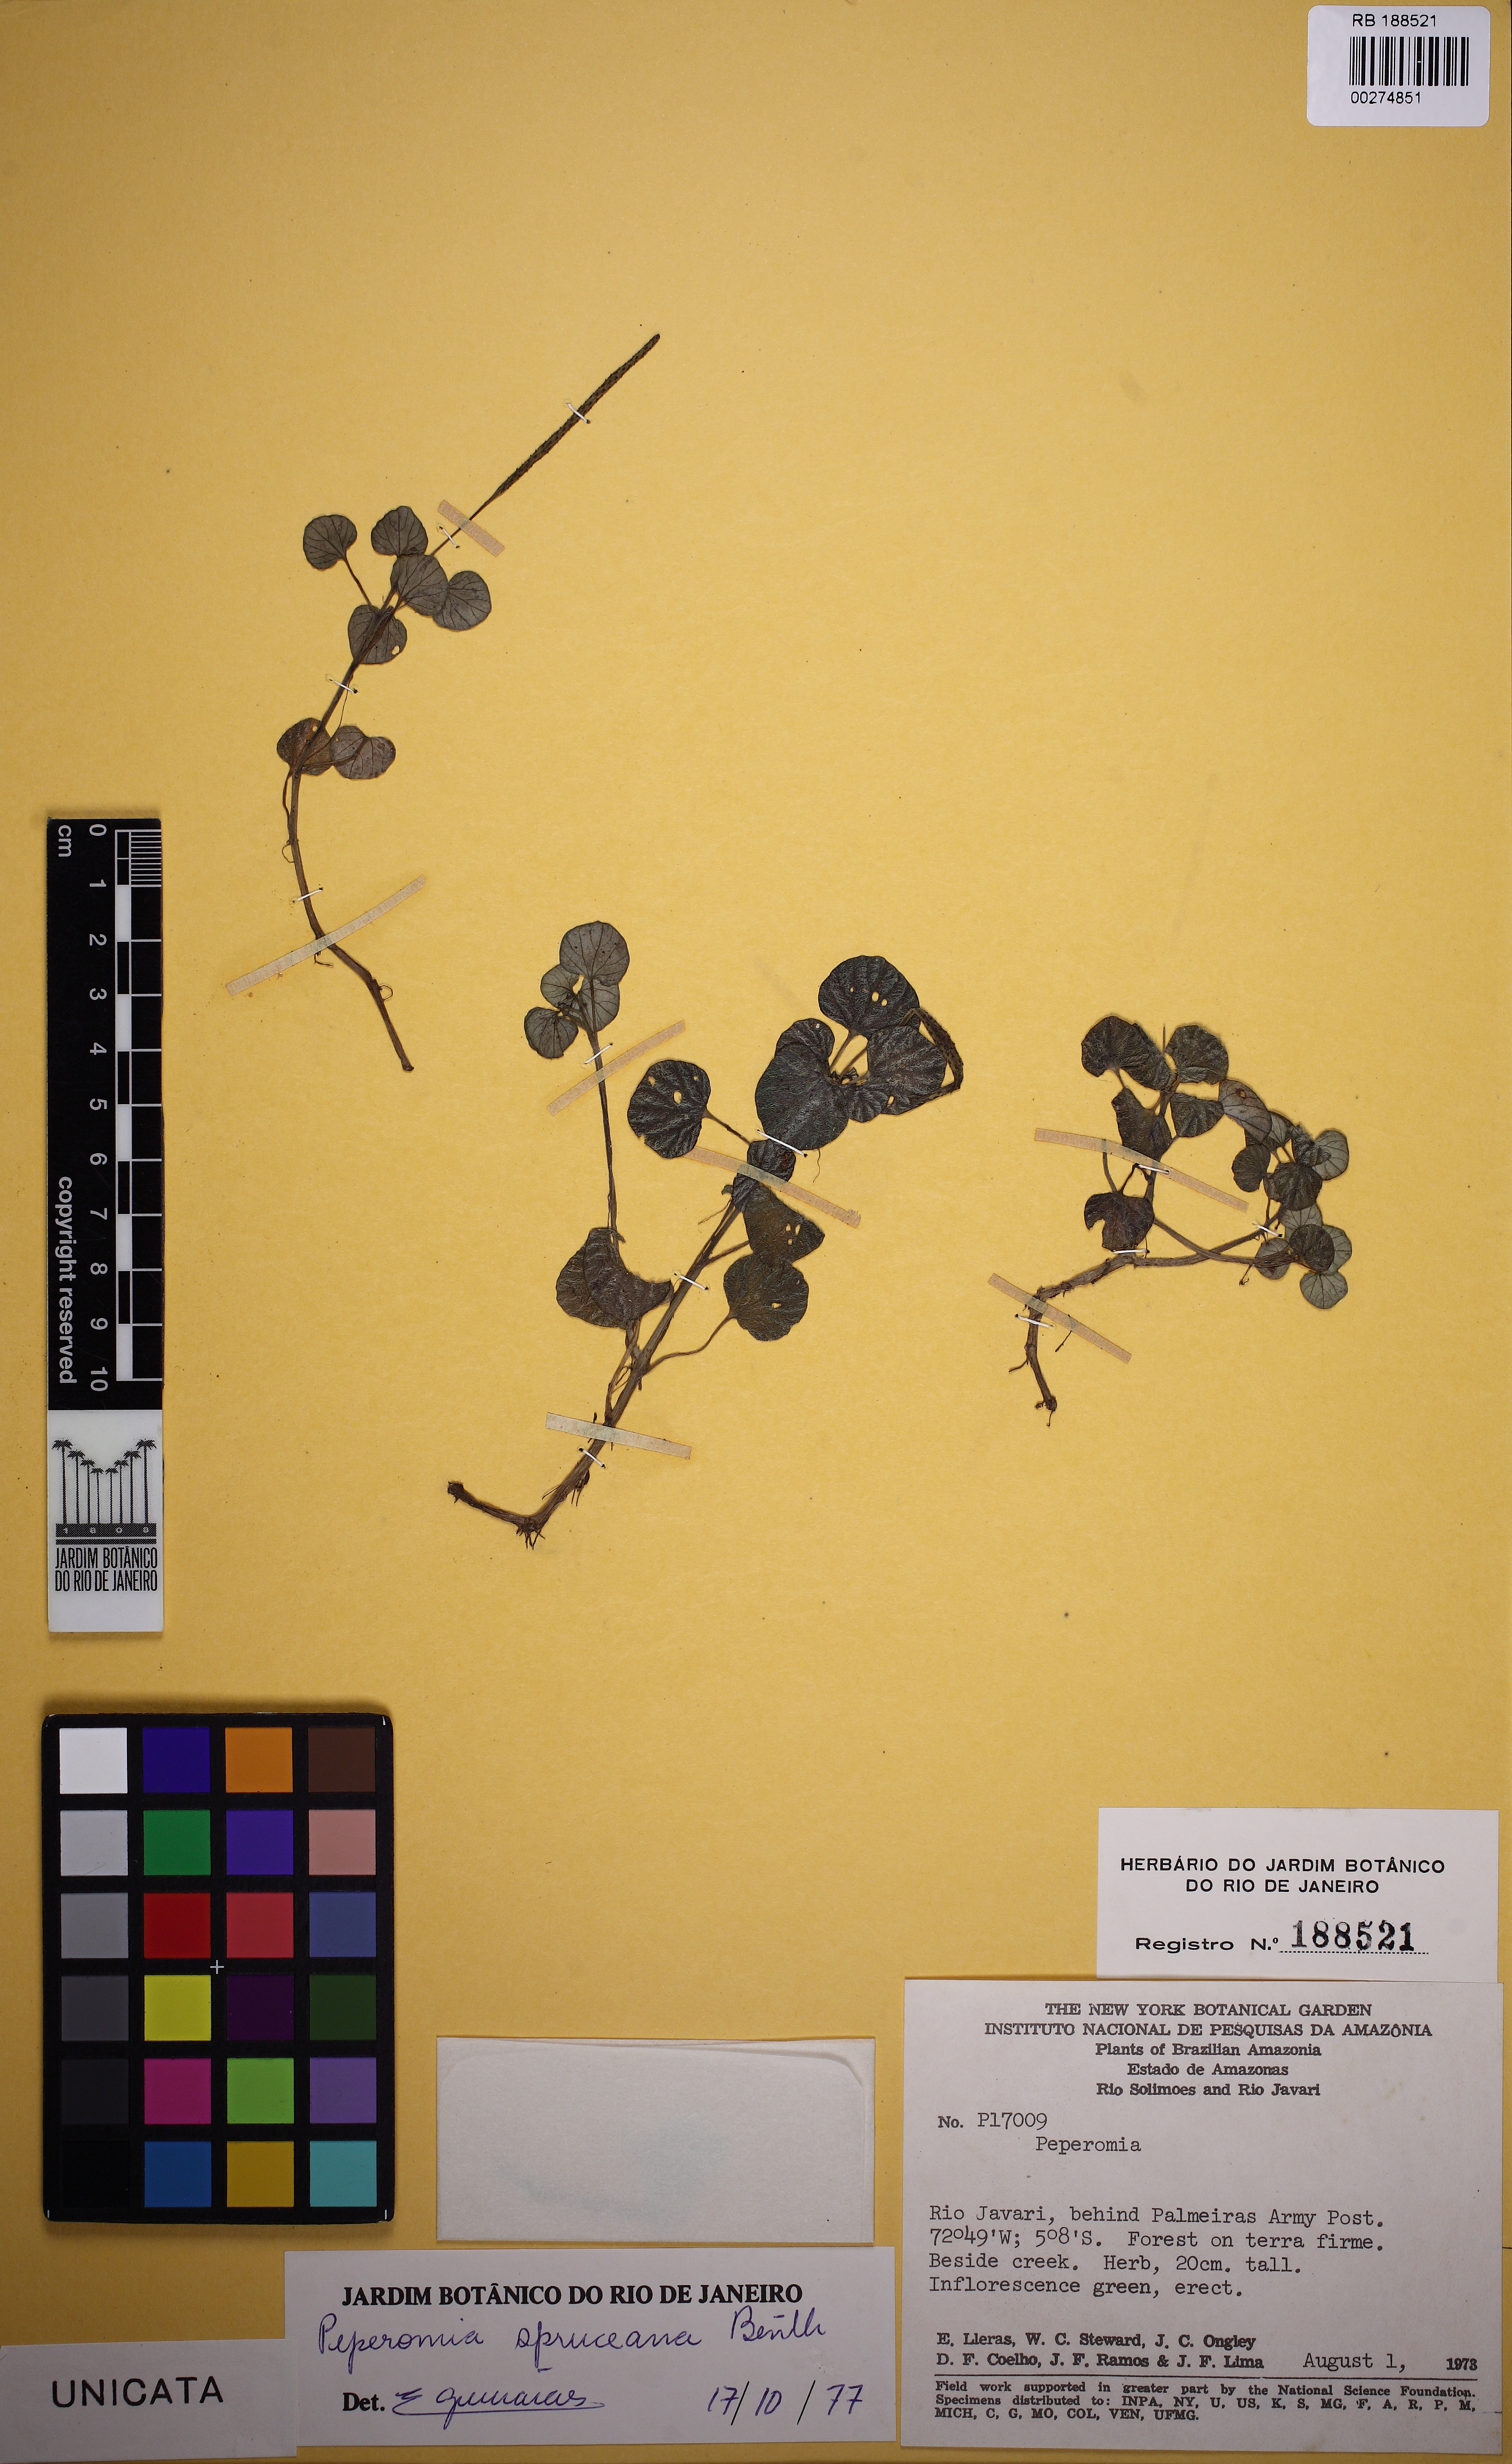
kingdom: Plantae
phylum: Tracheophyta
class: Magnoliopsida
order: Piperales
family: Piperaceae
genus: Peperomia
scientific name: Peperomia spruceana
